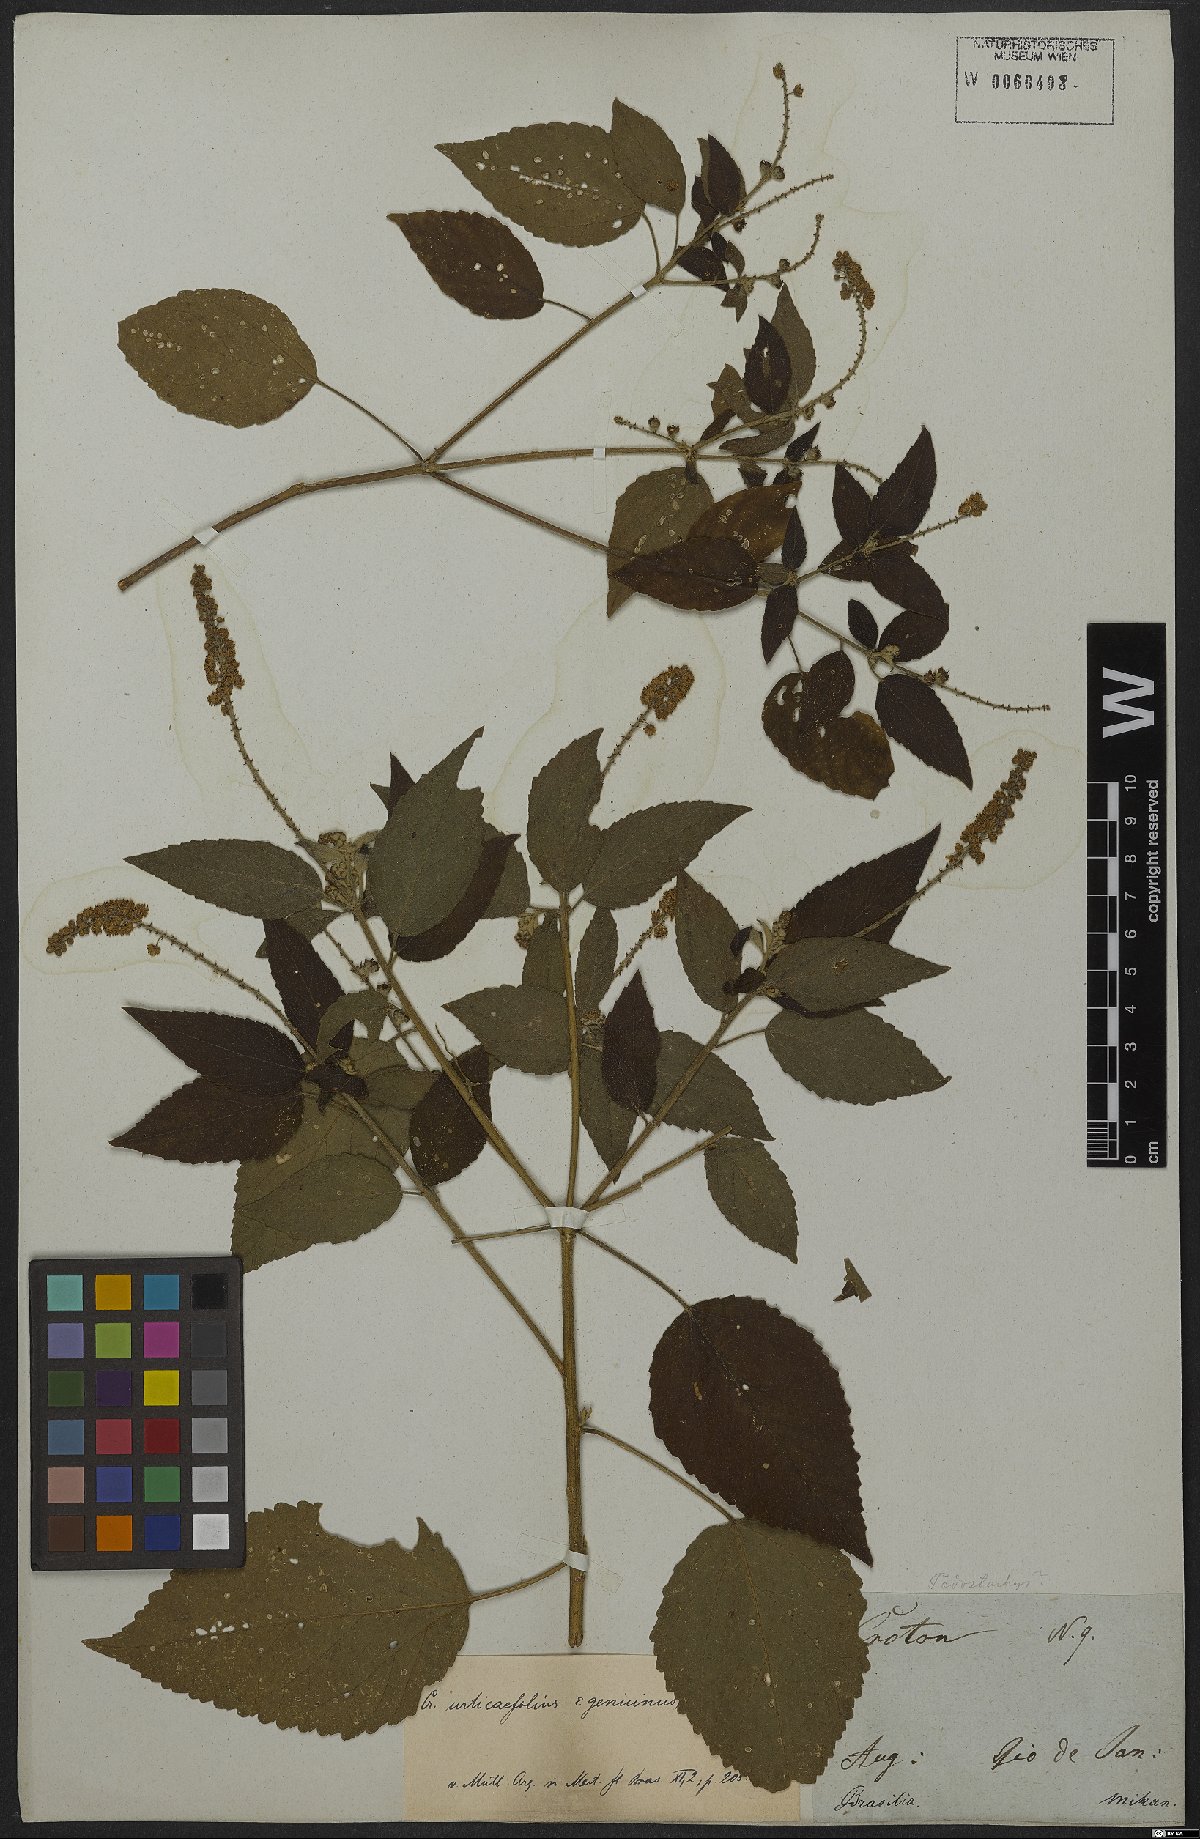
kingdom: Plantae
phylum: Tracheophyta
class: Magnoliopsida
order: Malpighiales
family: Euphorbiaceae
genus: Croton
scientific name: Croton urticifolius
